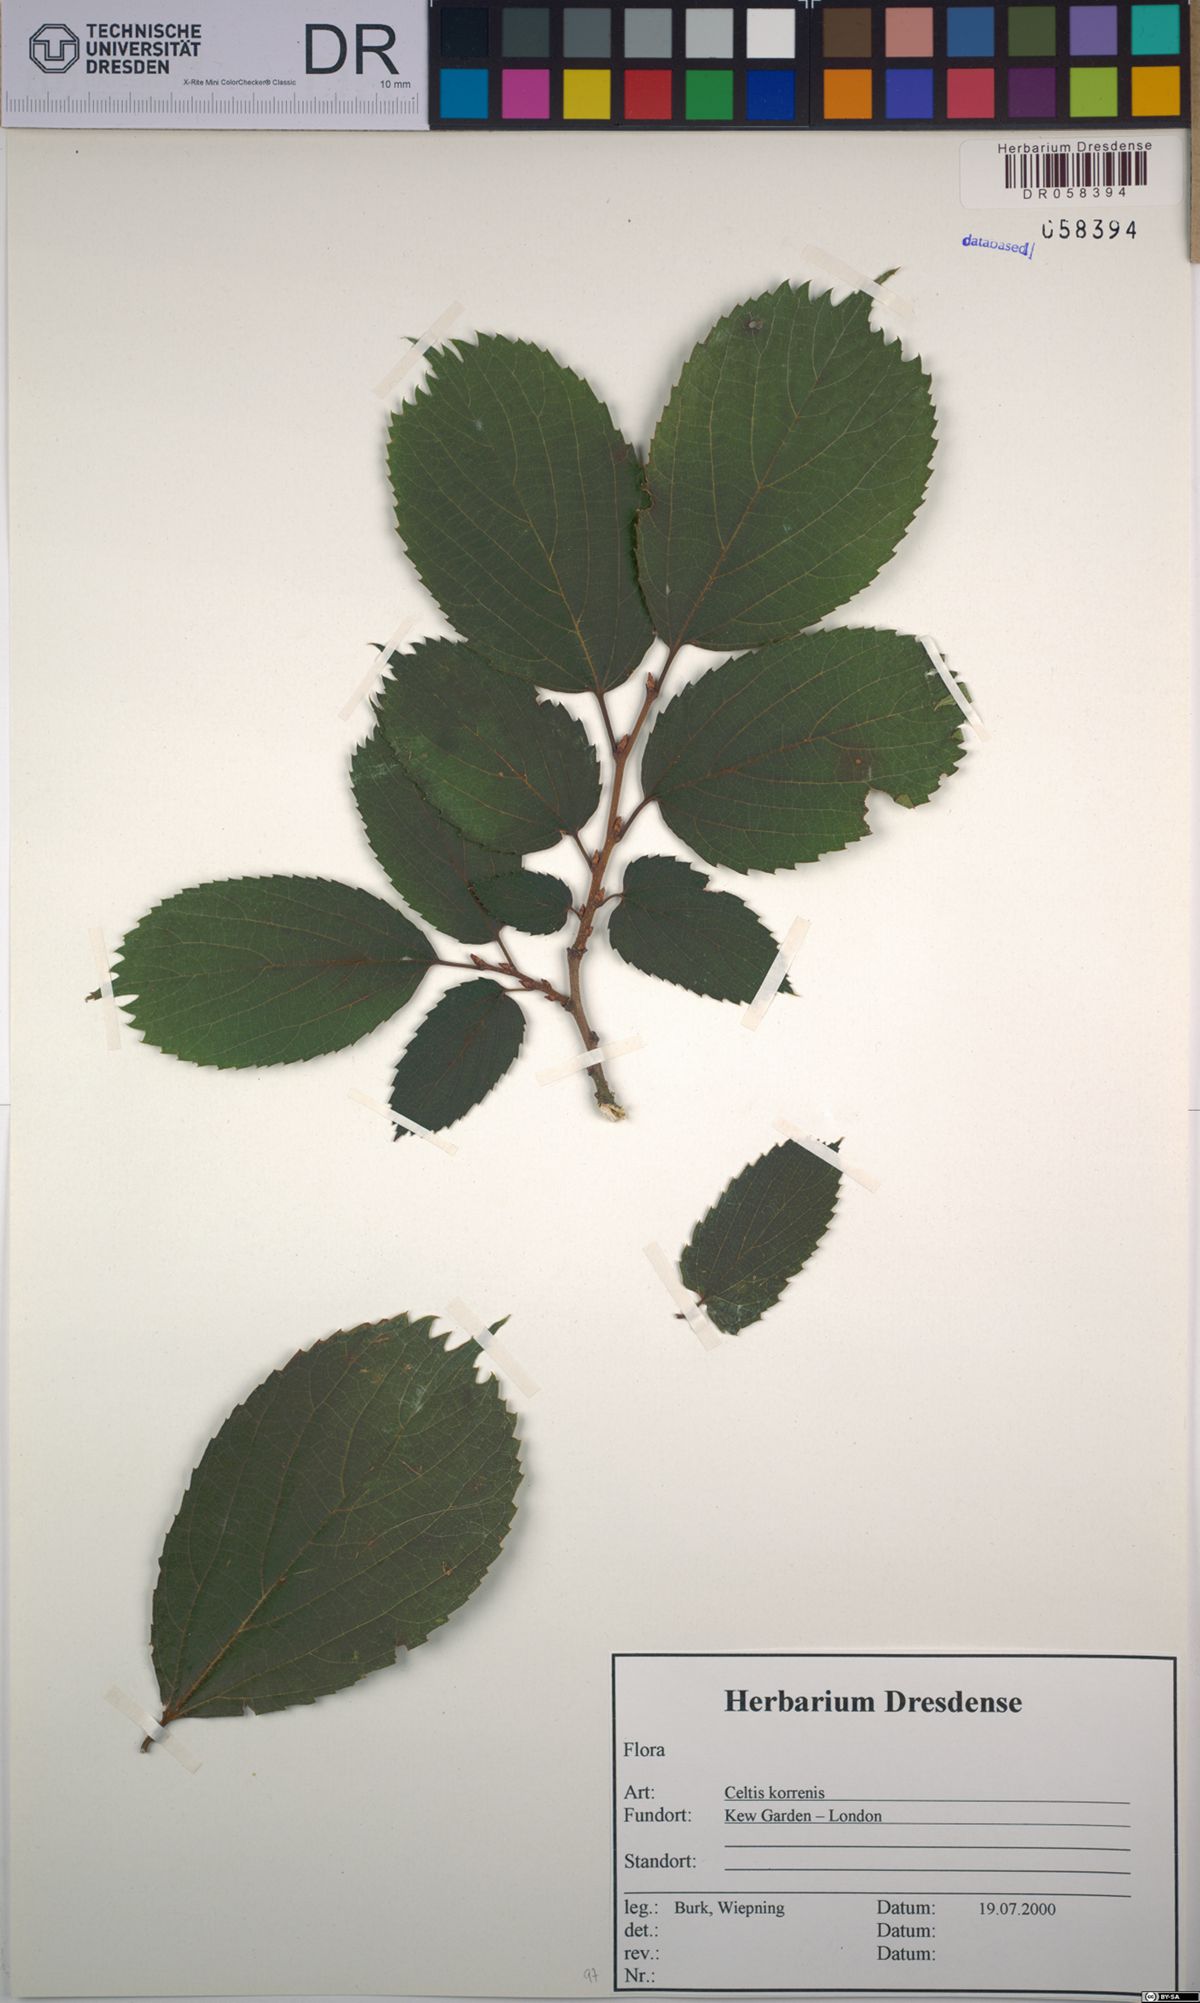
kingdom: Plantae
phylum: Tracheophyta
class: Magnoliopsida
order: Rosales
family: Cannabaceae
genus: Celtis
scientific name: Celtis
